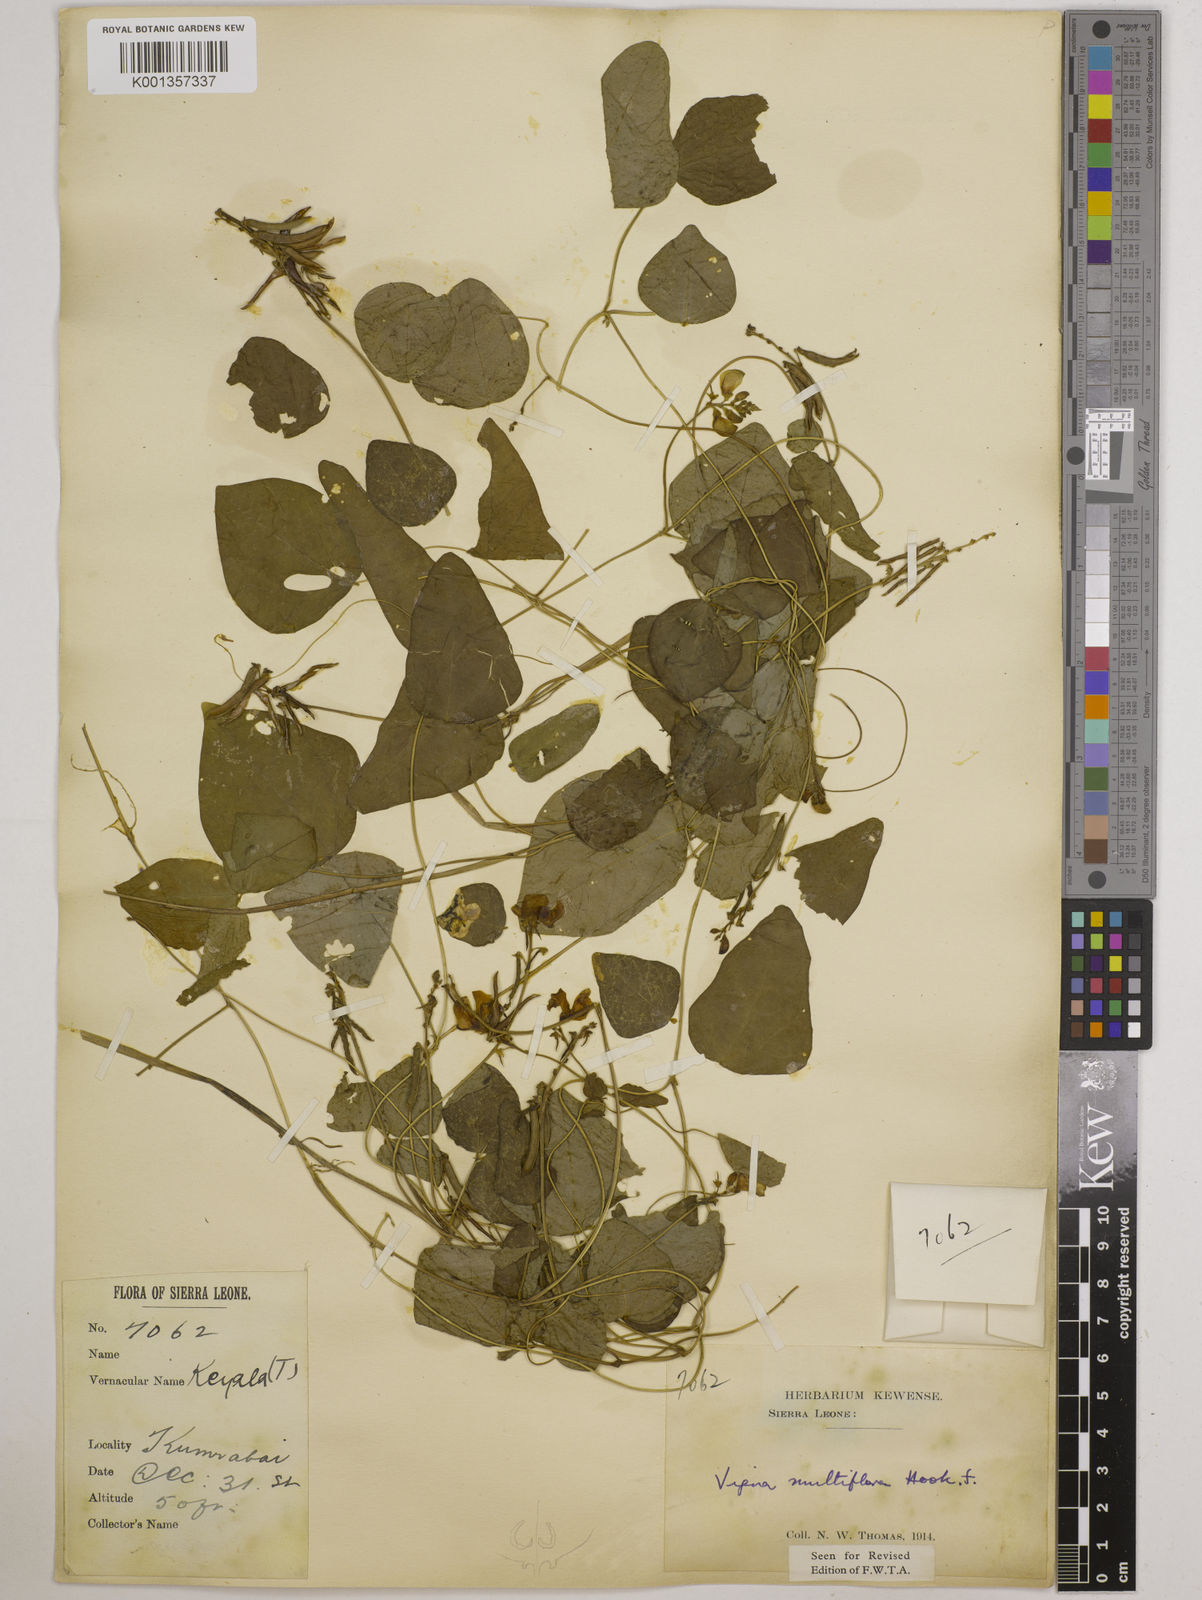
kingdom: Plantae
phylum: Tracheophyta
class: Magnoliopsida
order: Fabales
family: Fabaceae
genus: Vigna
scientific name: Vigna gracilis
